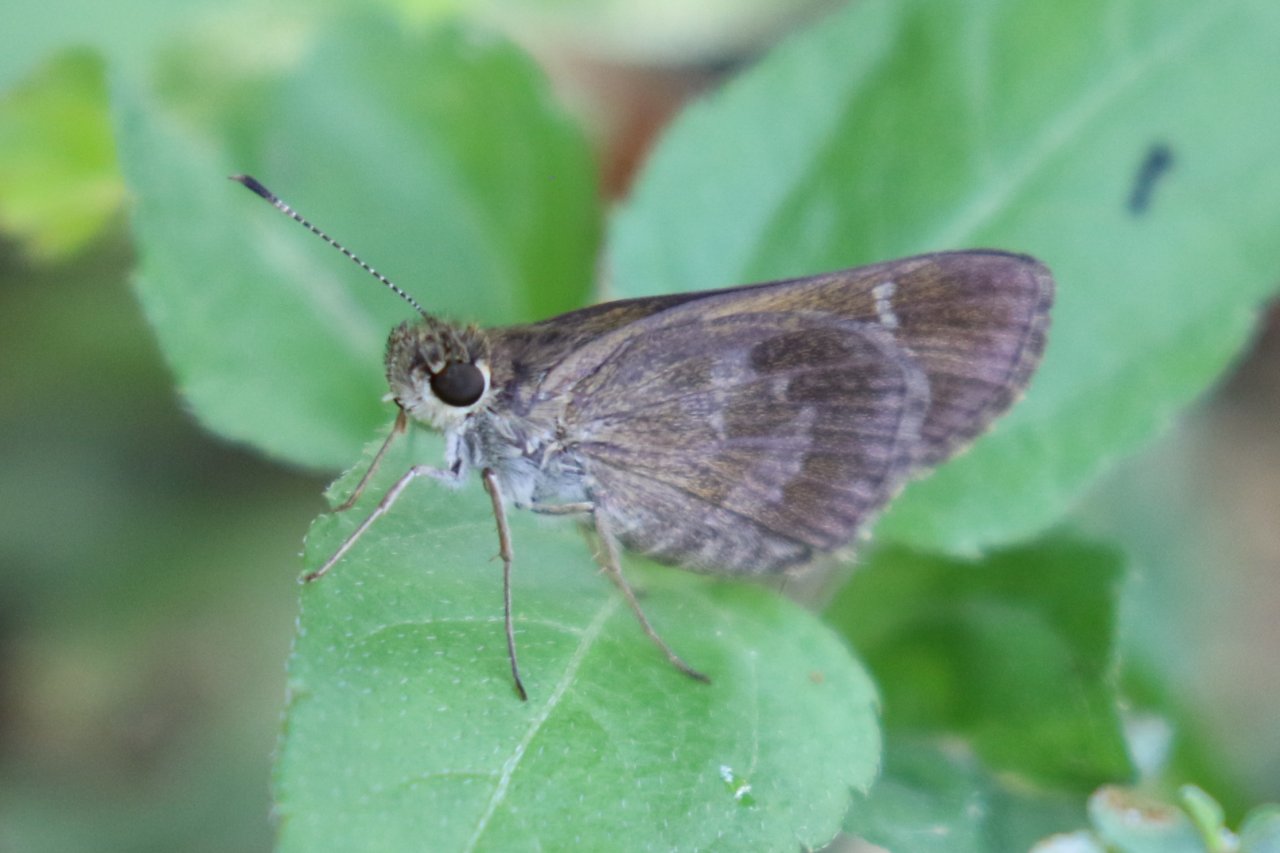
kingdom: Animalia
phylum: Arthropoda
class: Insecta
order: Lepidoptera
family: Hesperiidae
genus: Cymaenes
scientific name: Cymaenes odilia
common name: Fawn-spotted Skipper
